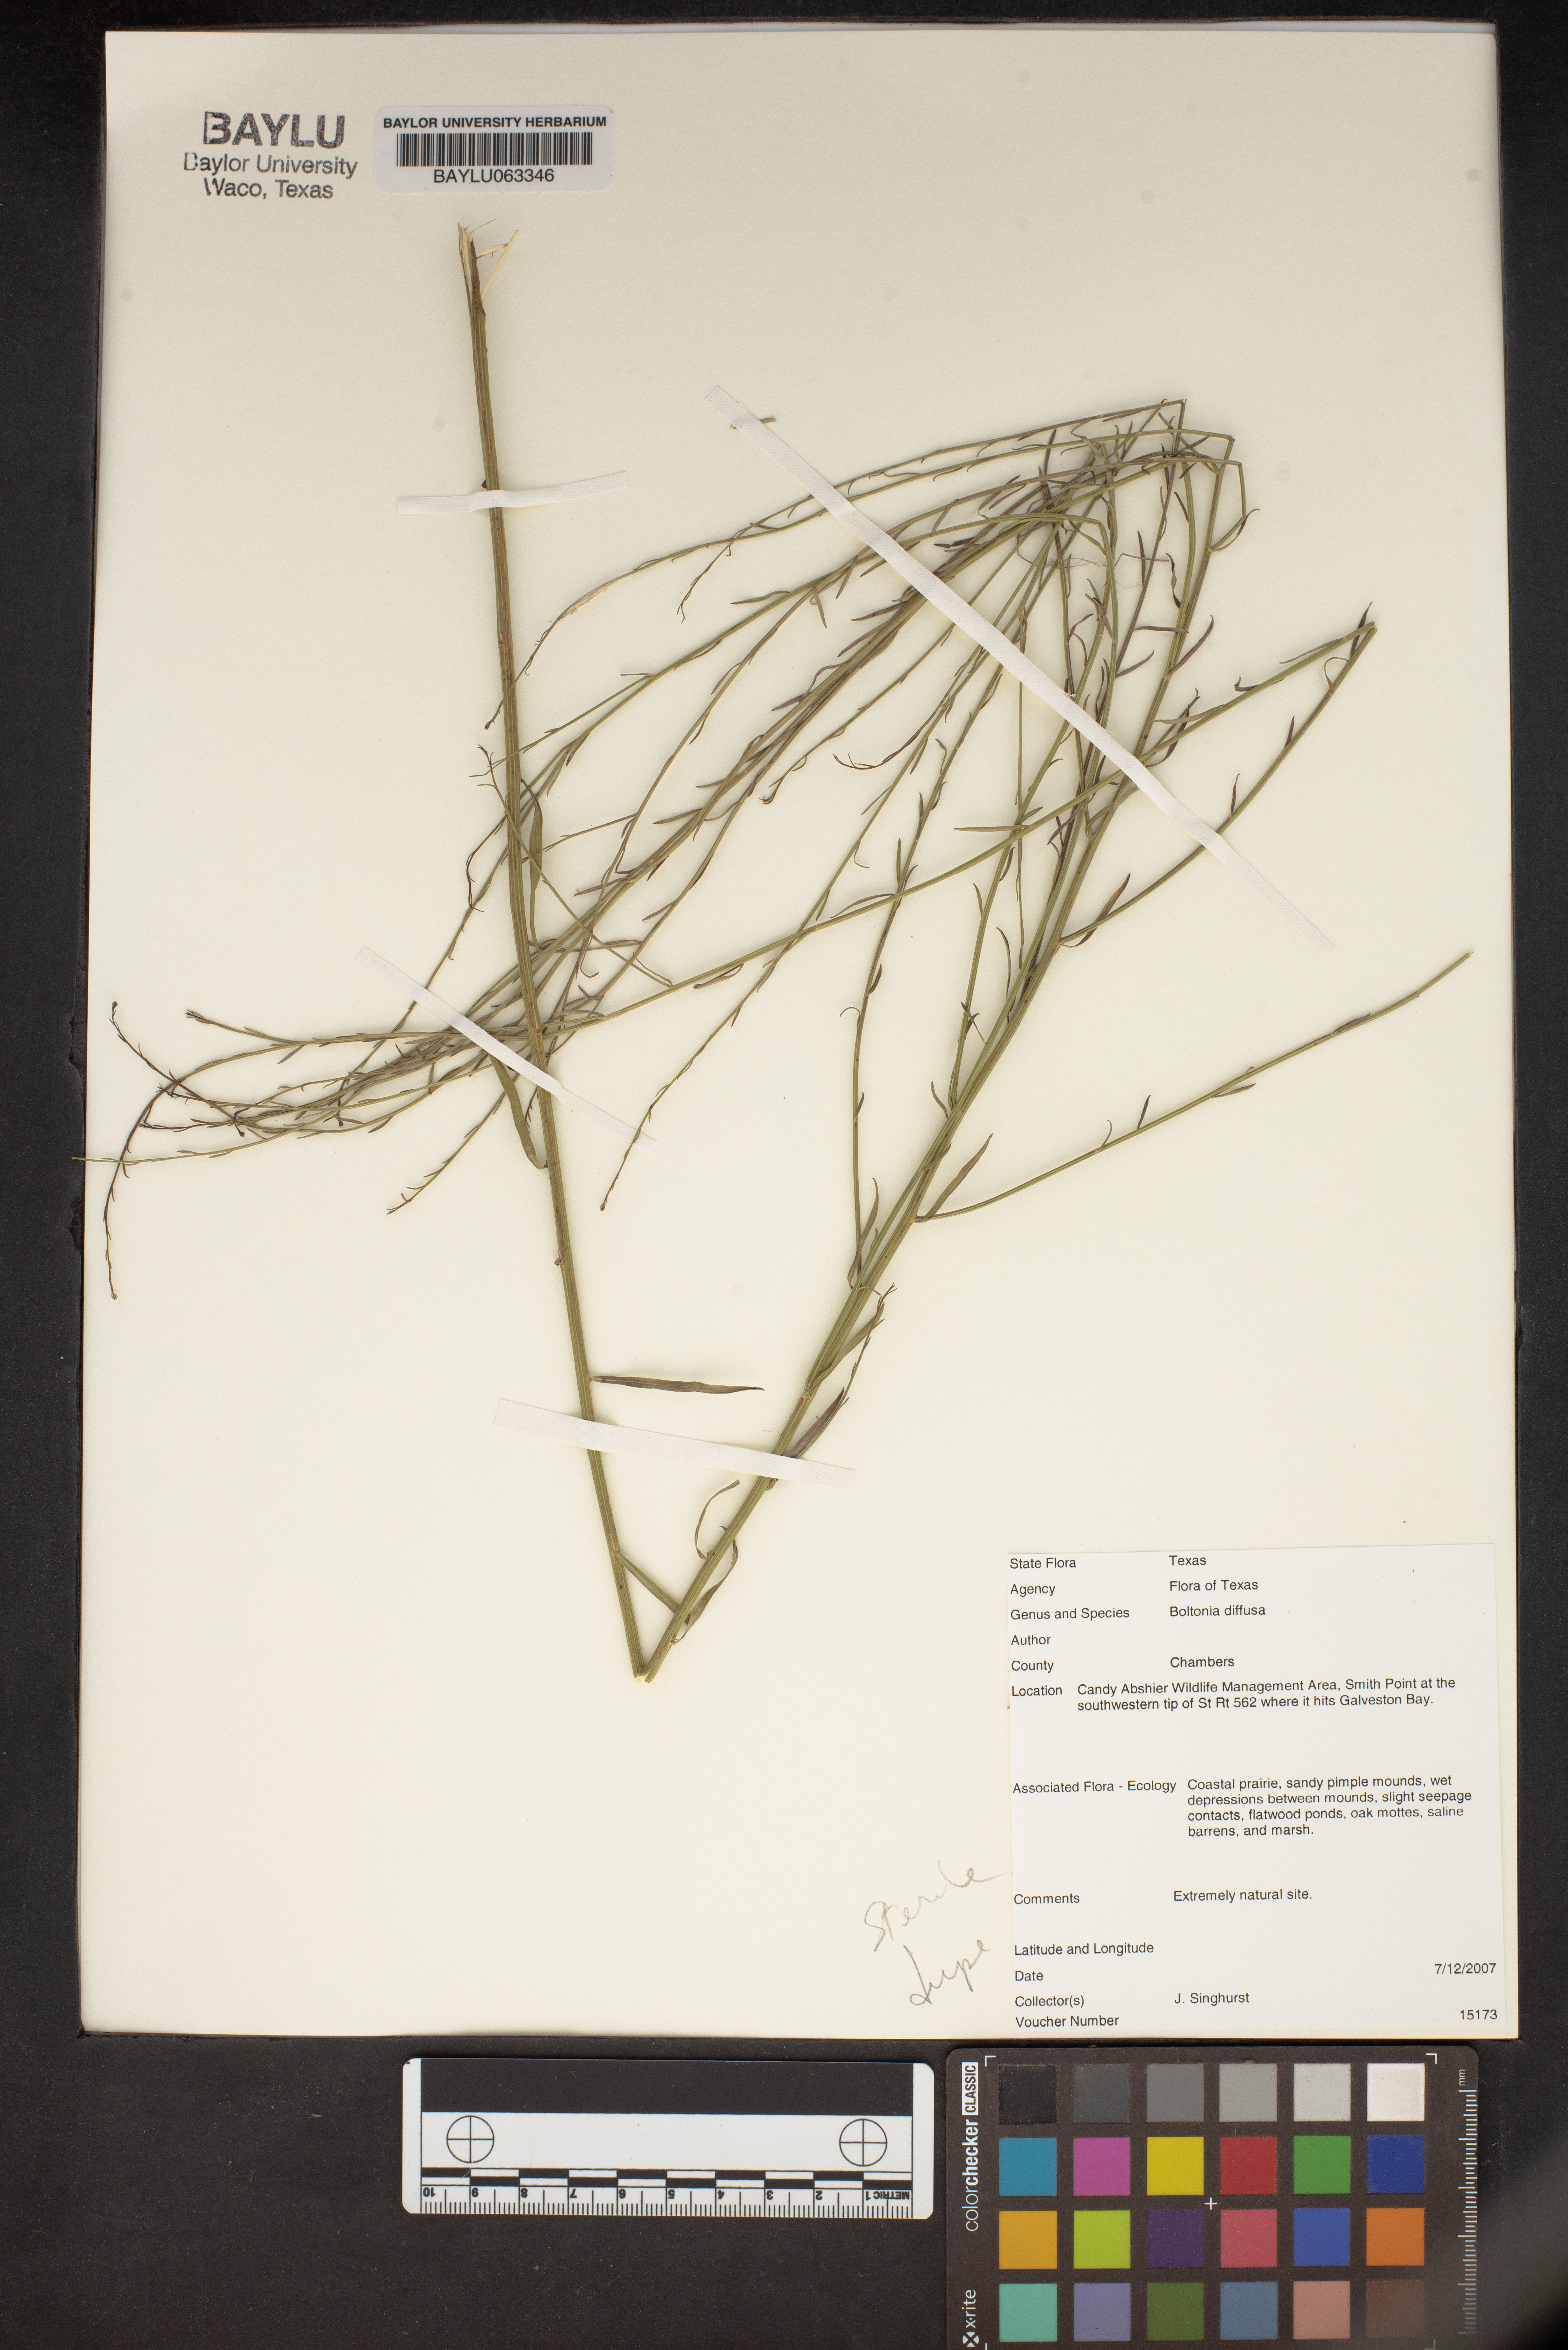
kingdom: Plantae
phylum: Tracheophyta
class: Magnoliopsida
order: Asterales
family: Asteraceae
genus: Boltonia
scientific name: Boltonia diffusa
